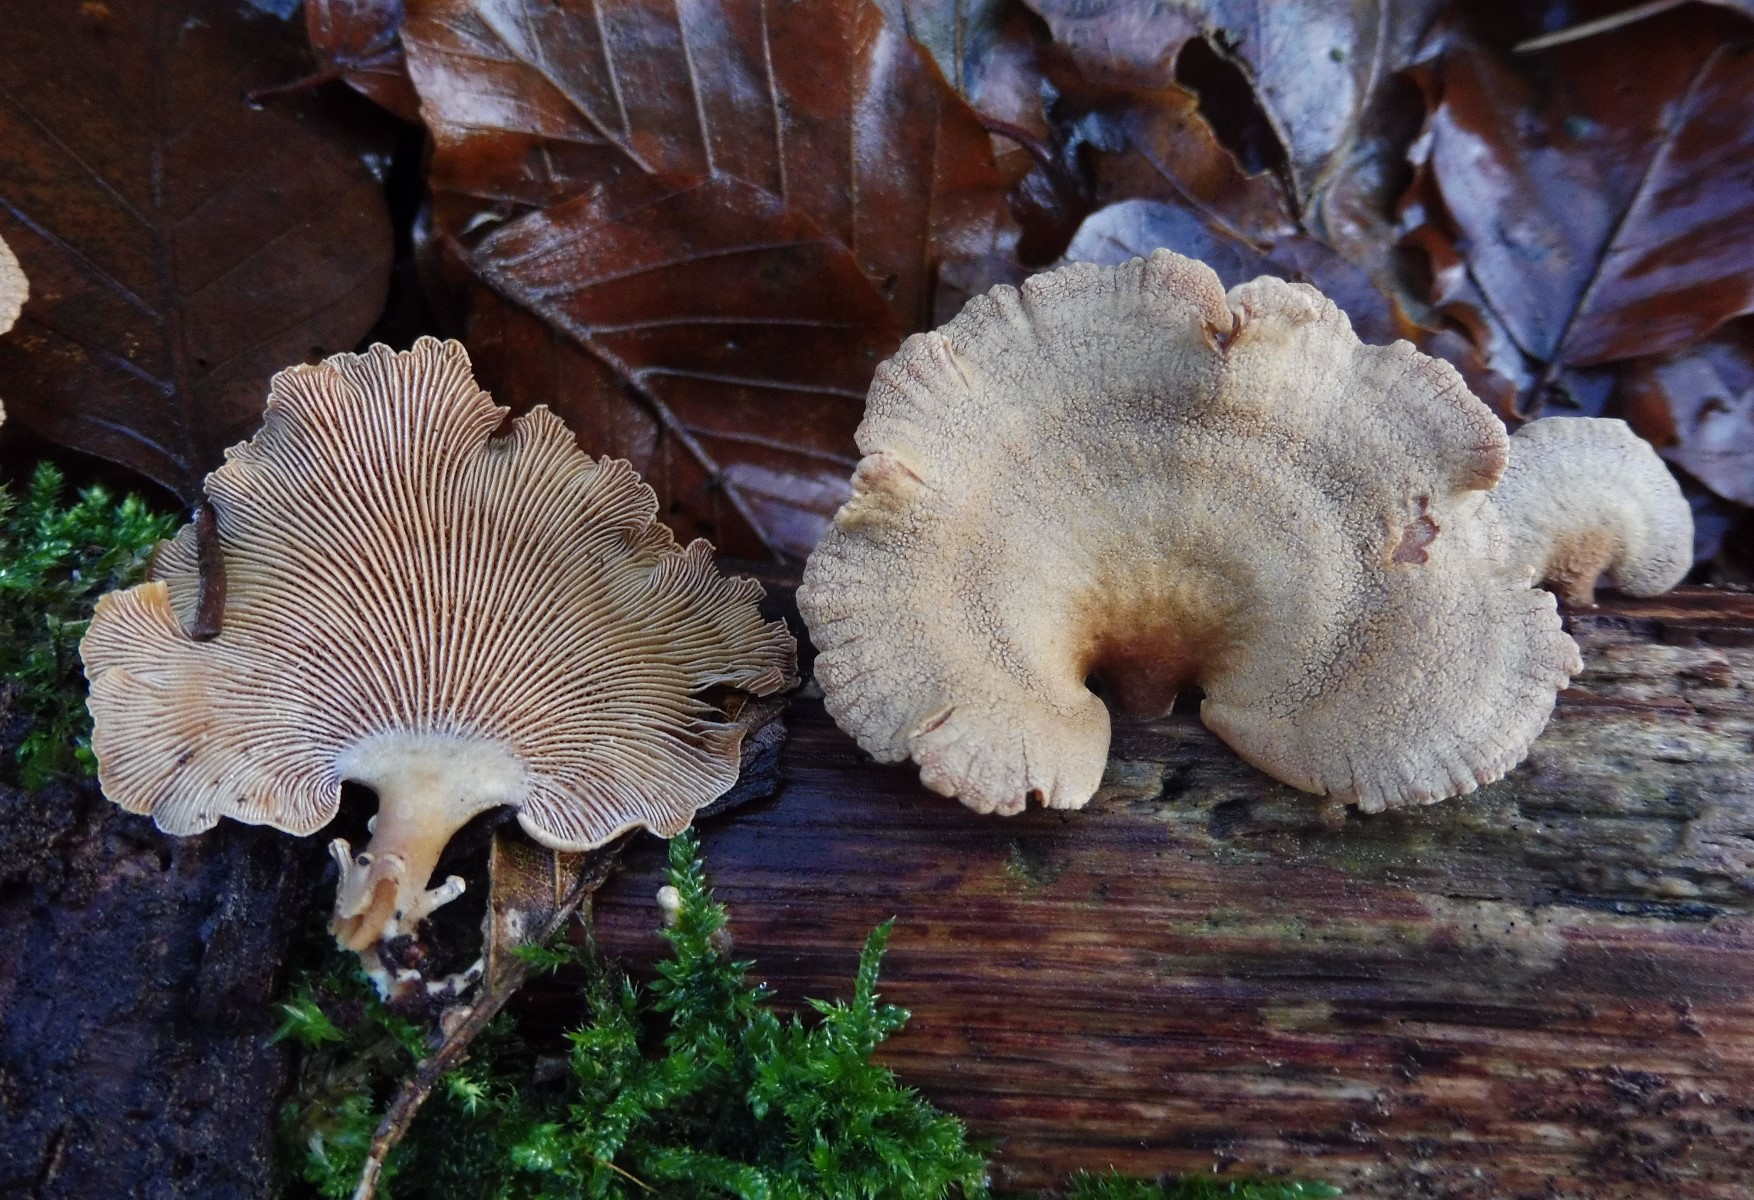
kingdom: Fungi
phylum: Basidiomycota
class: Agaricomycetes
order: Agaricales
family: Mycenaceae
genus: Panellus
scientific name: Panellus stipticus
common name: kliddet epaulethat
